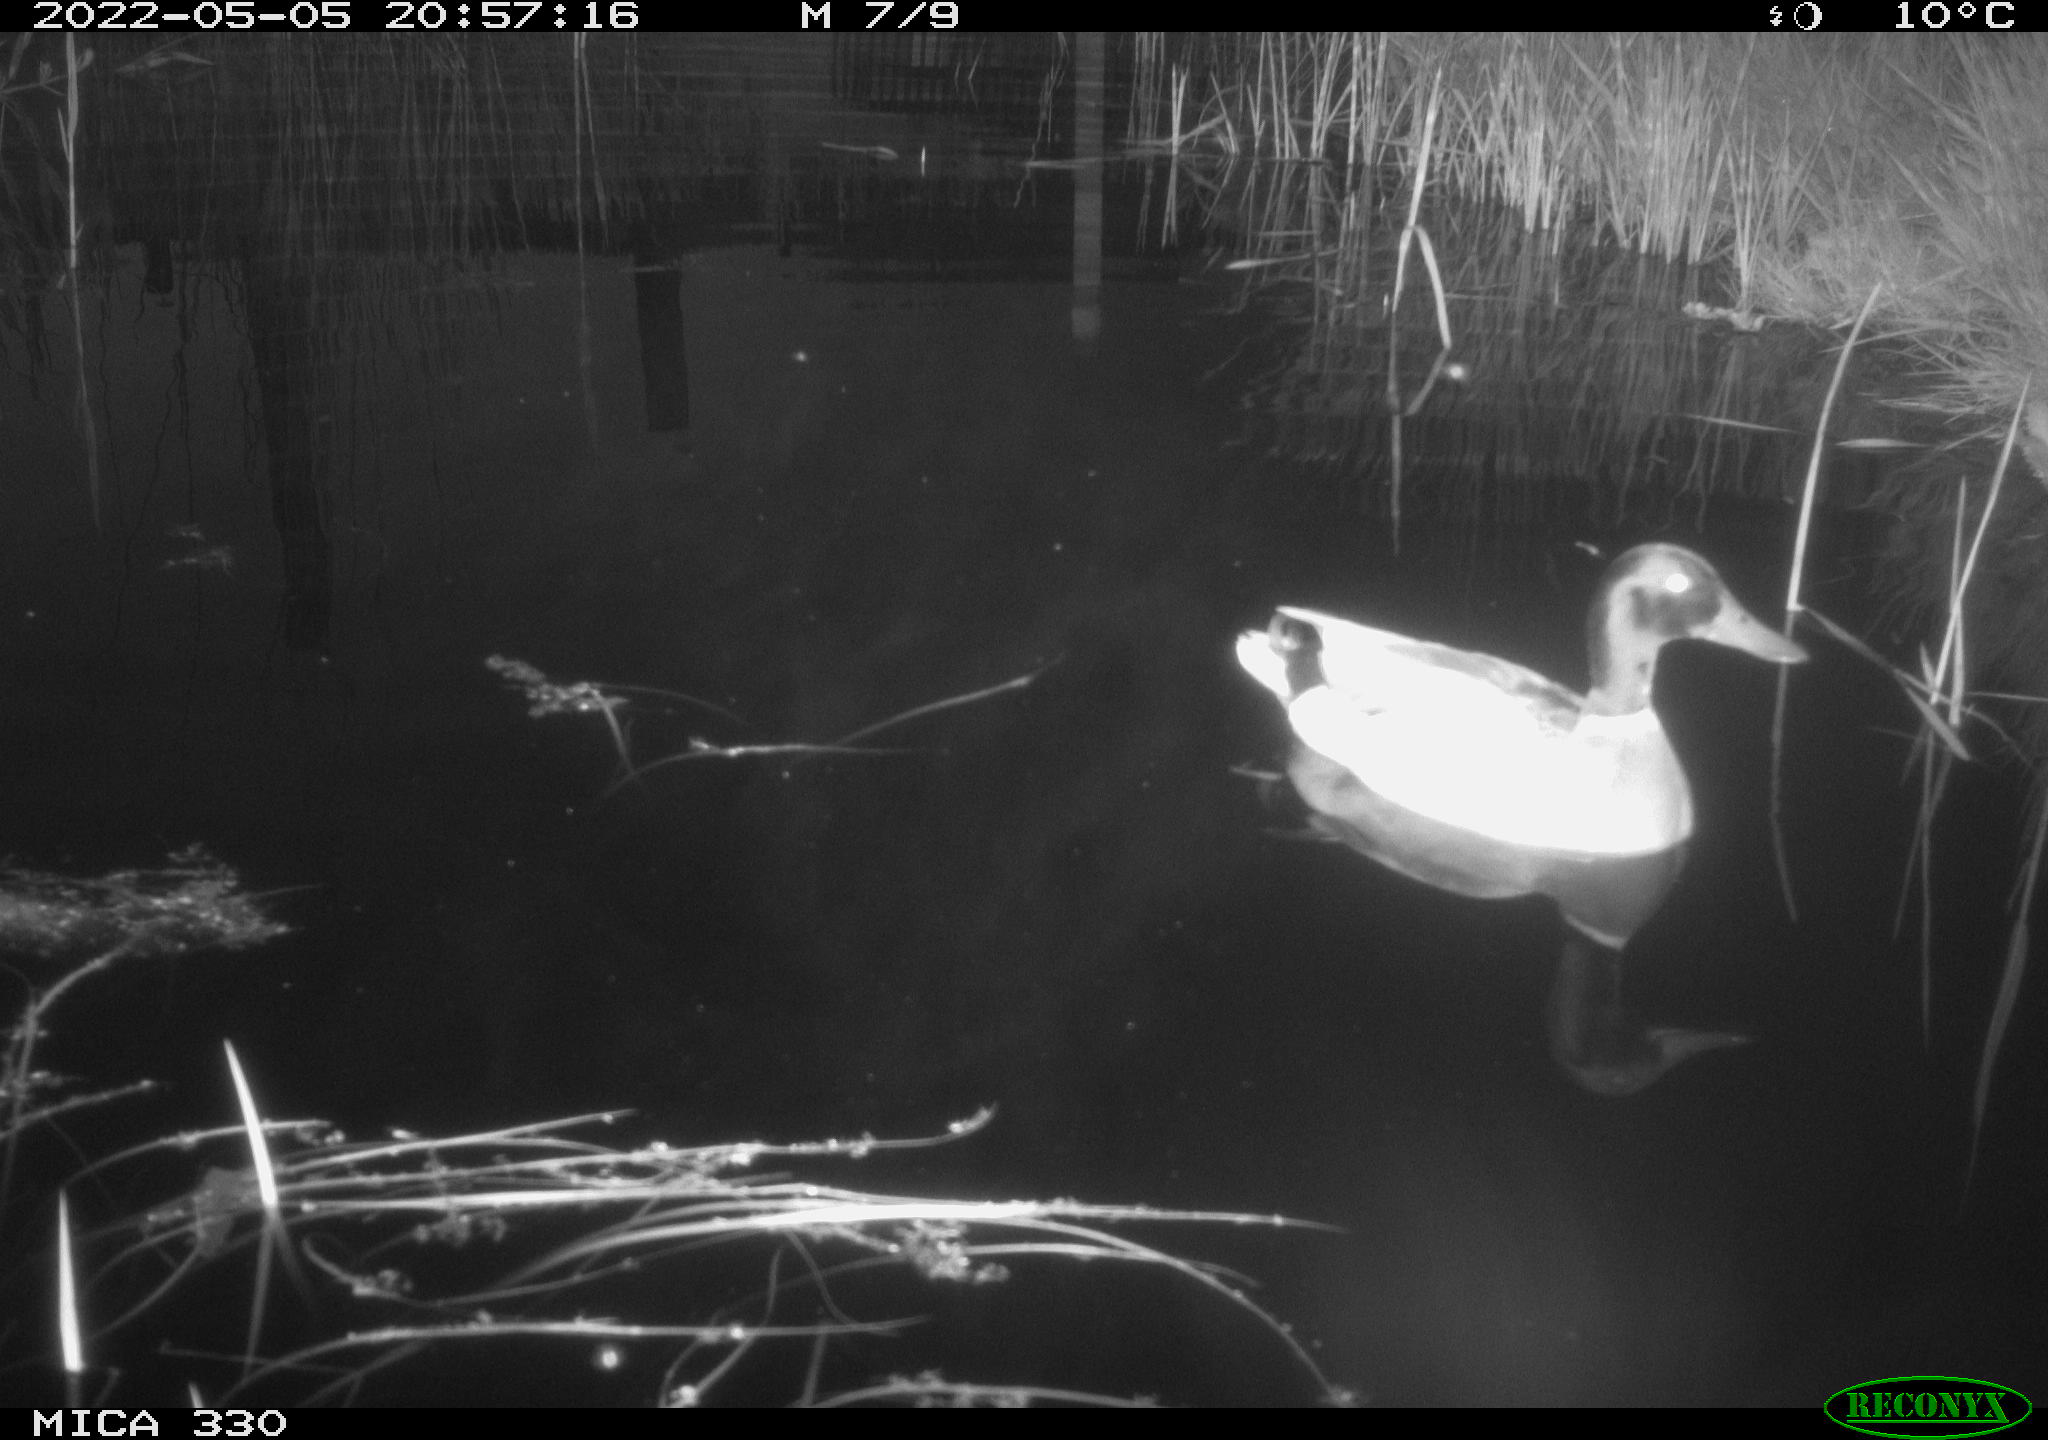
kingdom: Animalia
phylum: Chordata
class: Aves
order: Anseriformes
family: Anatidae
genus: Anas
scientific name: Anas platyrhynchos
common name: Mallard
